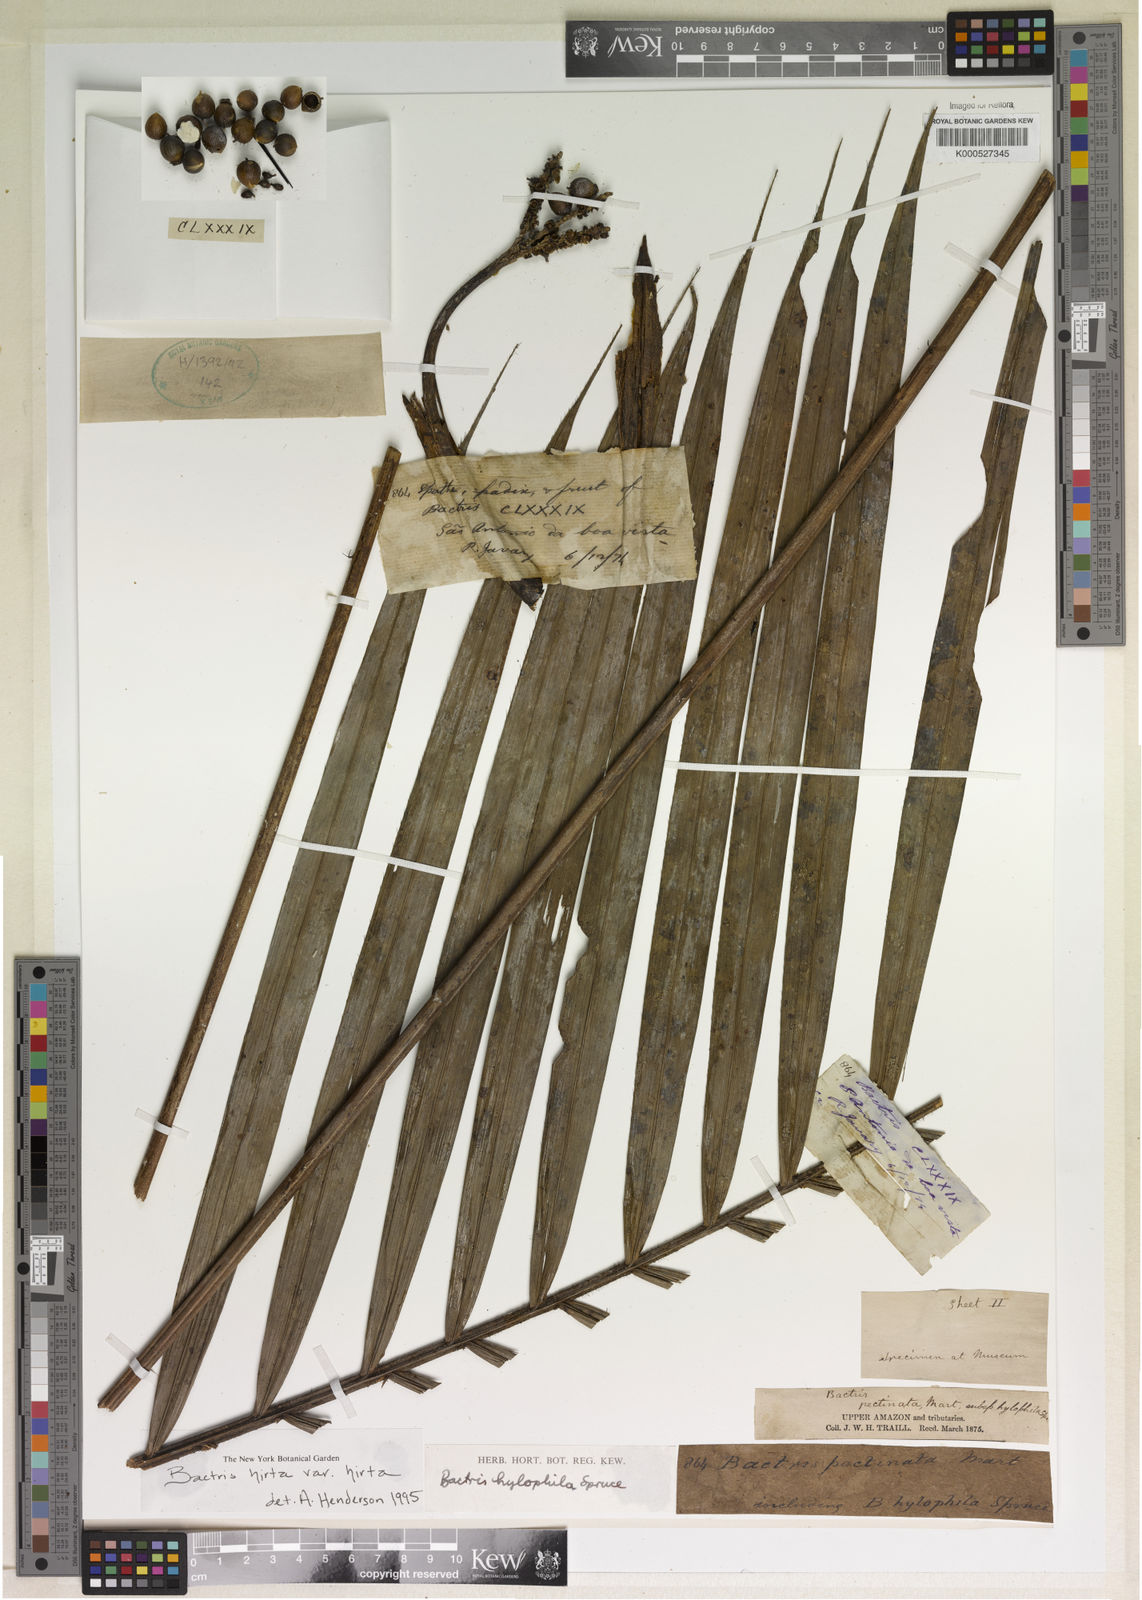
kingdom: Plantae
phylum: Tracheophyta
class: Liliopsida
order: Arecales
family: Arecaceae
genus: Bactris
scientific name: Bactris hirta
